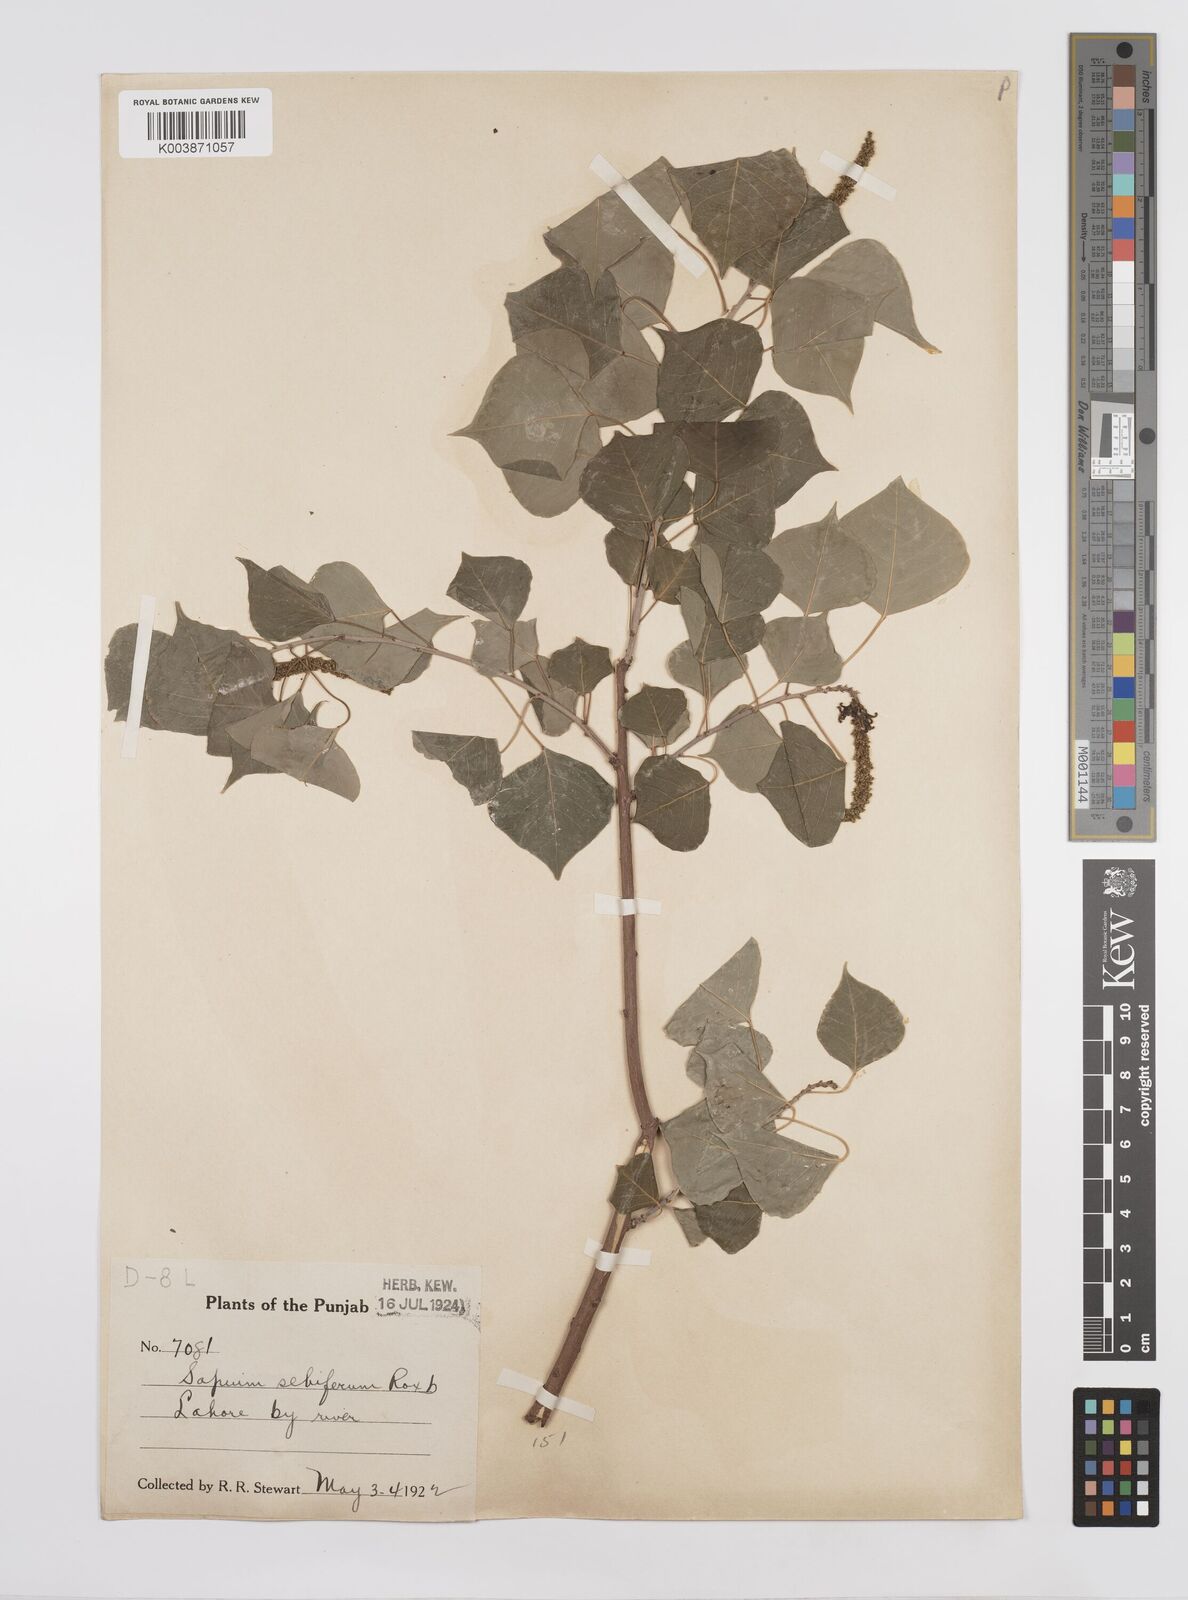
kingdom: Plantae
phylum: Tracheophyta
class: Magnoliopsida
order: Malpighiales
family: Euphorbiaceae
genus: Triadica
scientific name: Triadica sebifera
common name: Chinese tallow
